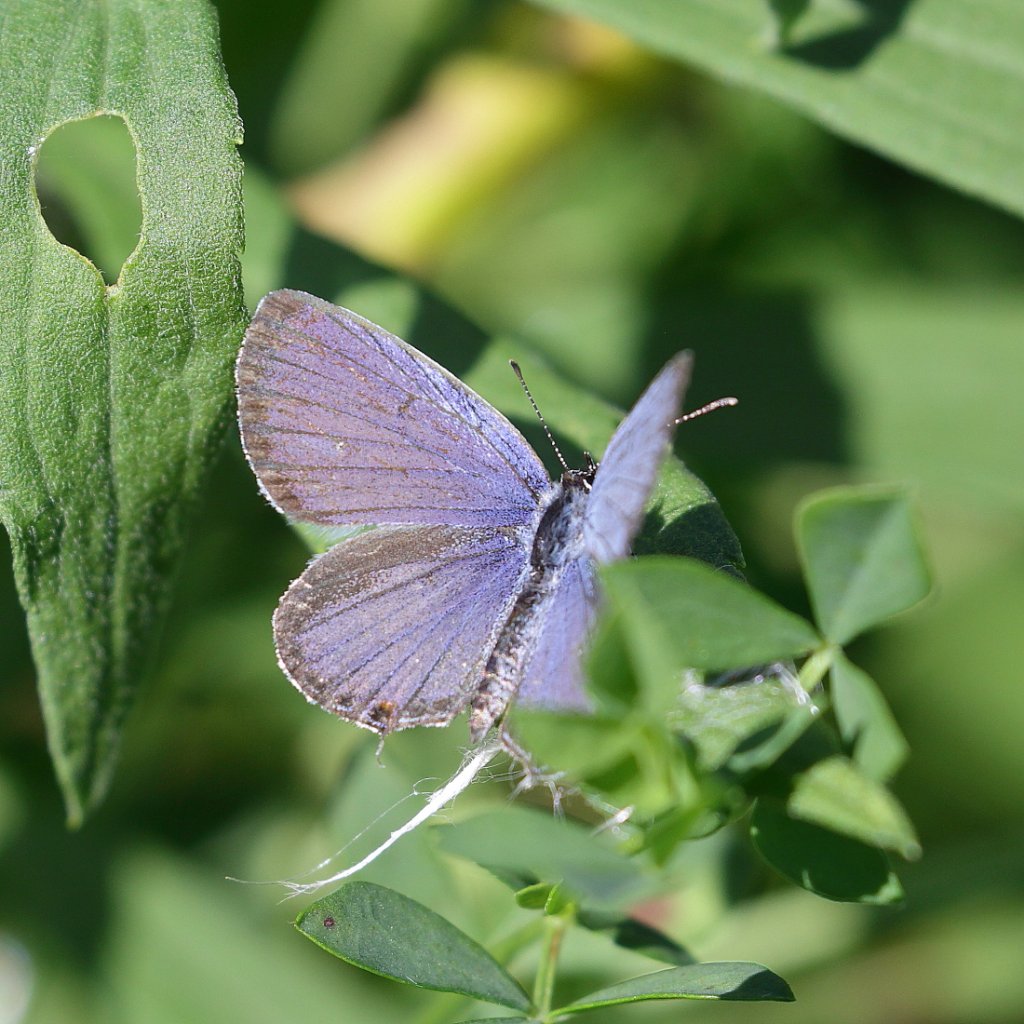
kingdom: Animalia
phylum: Arthropoda
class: Insecta
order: Lepidoptera
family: Lycaenidae
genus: Elkalyce
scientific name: Elkalyce comyntas
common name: Eastern Tailed-Blue
